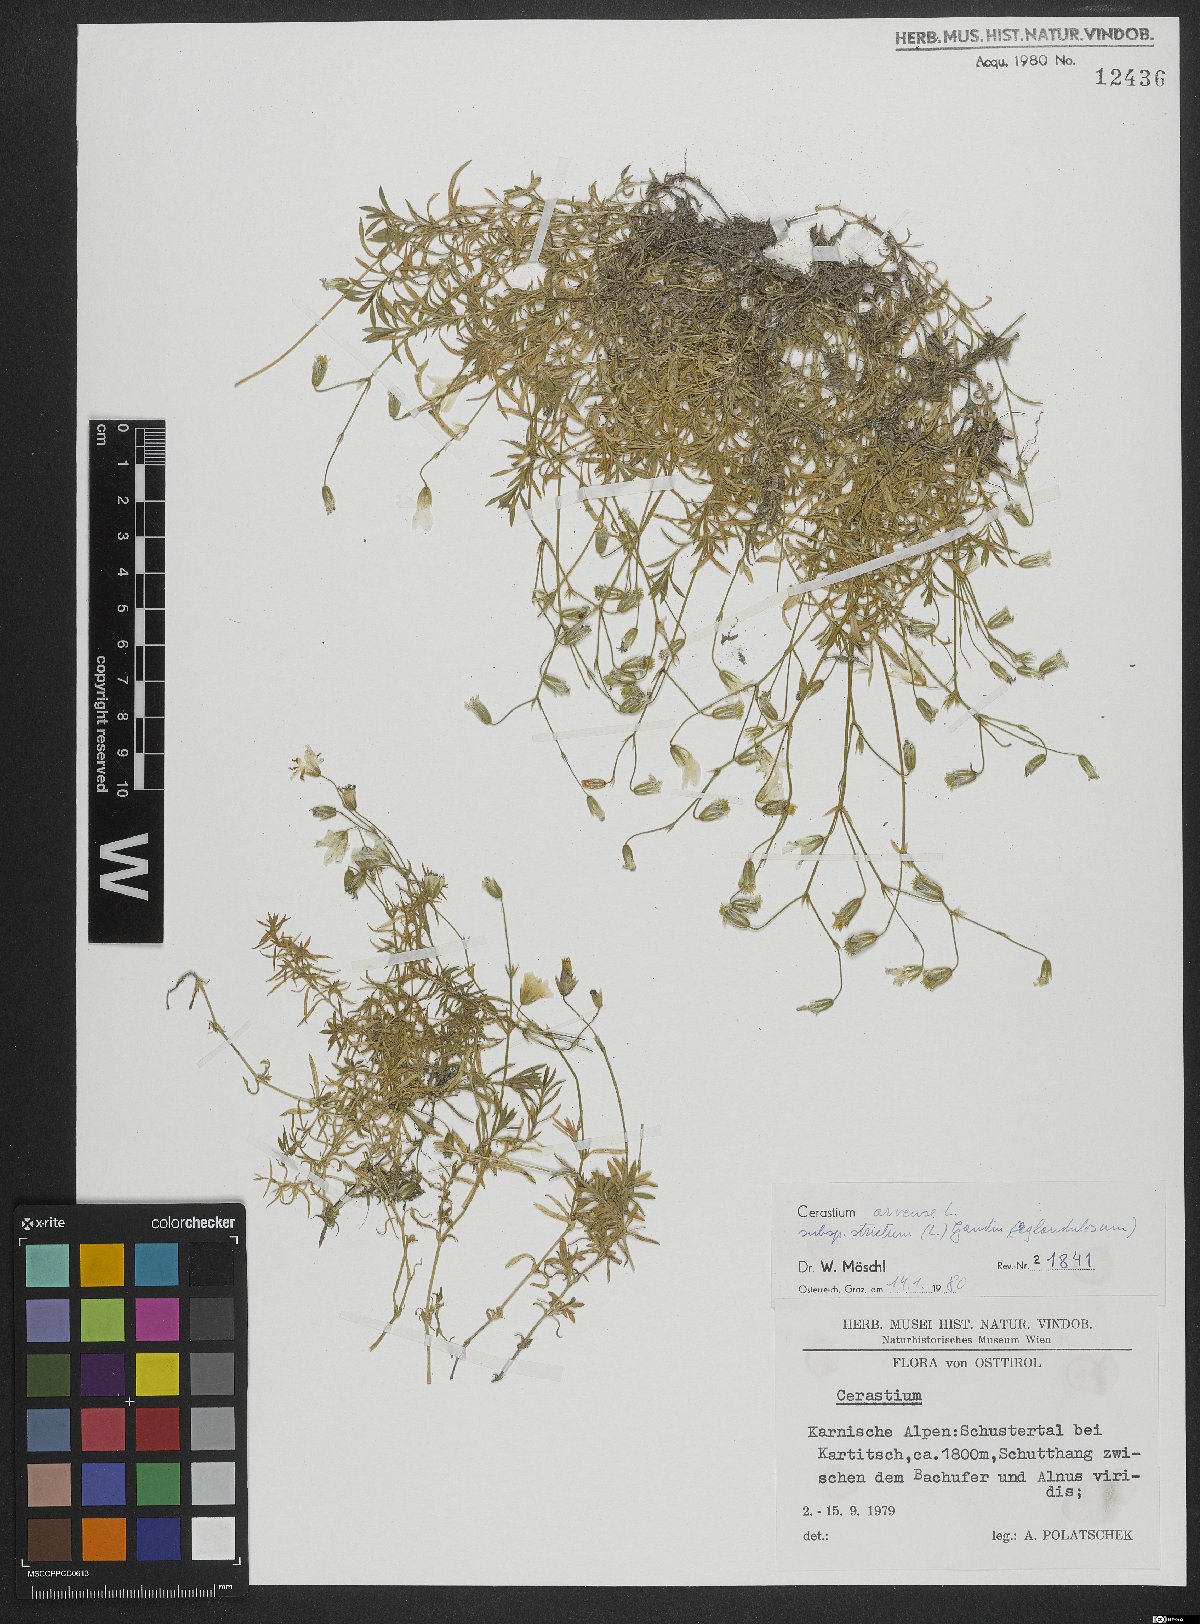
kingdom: Plantae
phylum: Tracheophyta
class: Magnoliopsida
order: Caryophyllales
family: Caryophyllaceae
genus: Cerastium
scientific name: Cerastium elongatum
